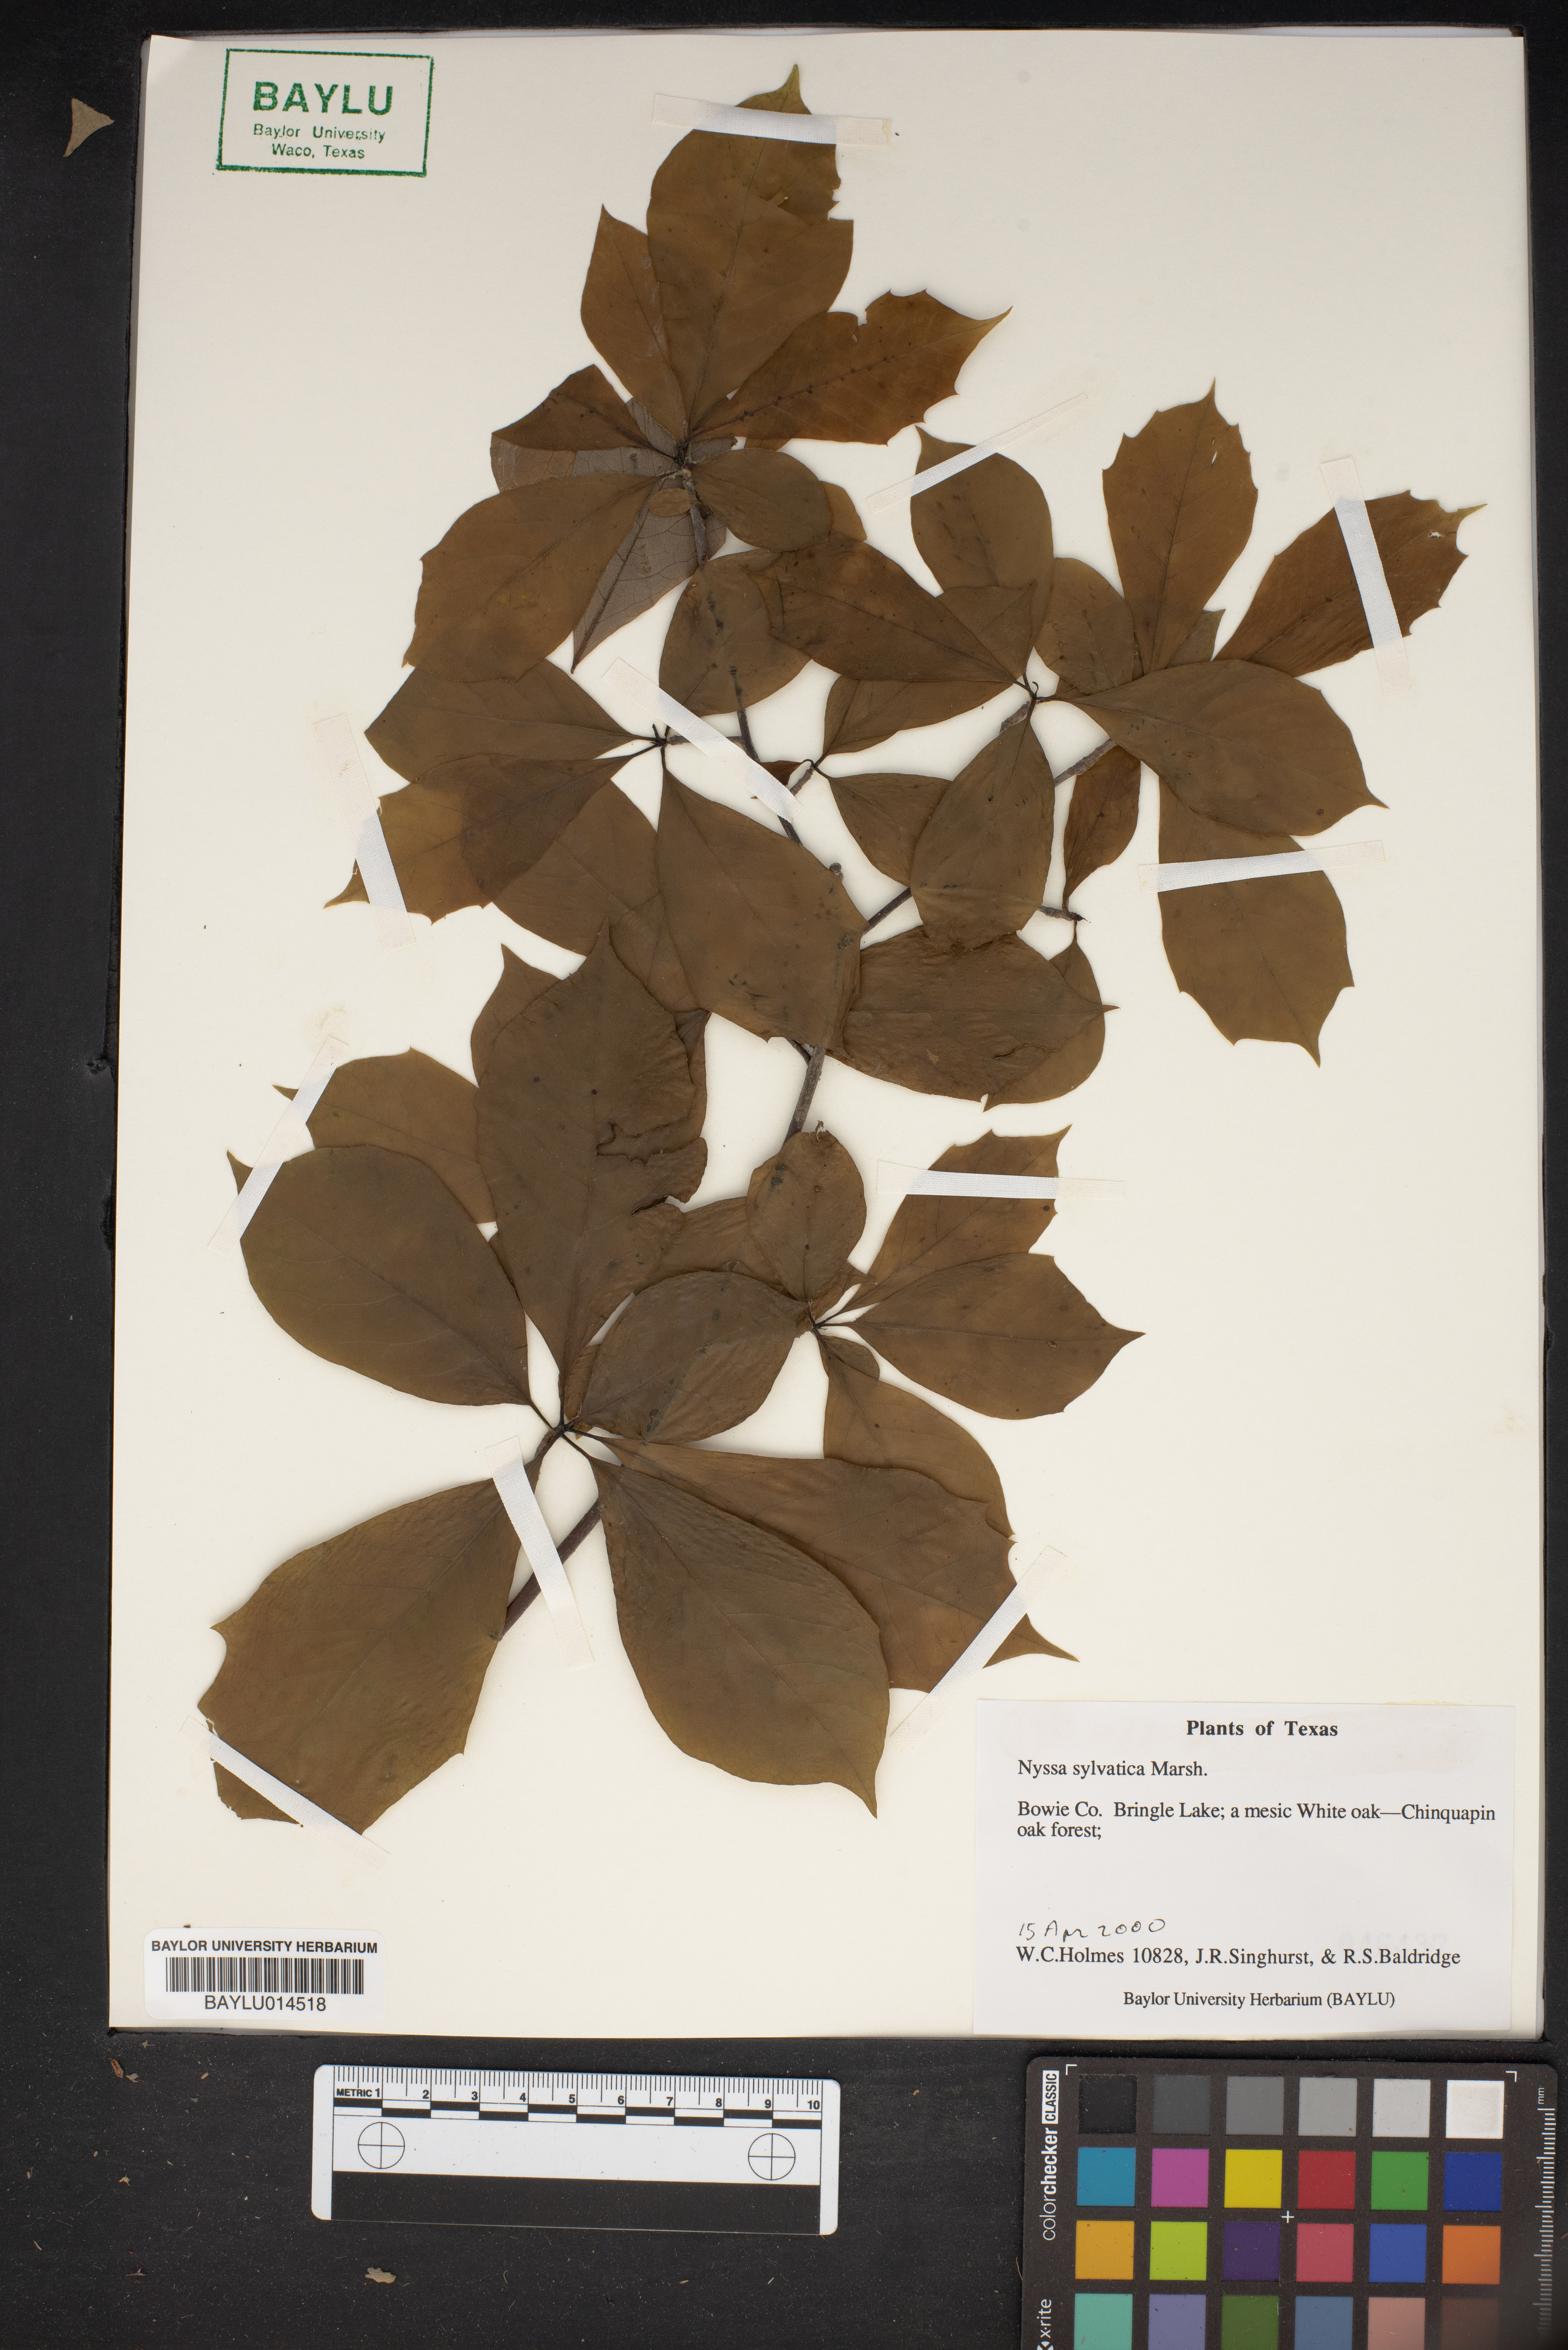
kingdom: Plantae
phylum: Tracheophyta
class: Magnoliopsida
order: Cornales
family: Nyssaceae
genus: Nyssa
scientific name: Nyssa sylvatica
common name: Black tupelo
